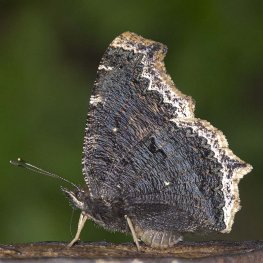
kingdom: Animalia
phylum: Arthropoda
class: Insecta
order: Lepidoptera
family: Nymphalidae
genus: Nymphalis
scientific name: Nymphalis antiopa
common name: Mourning Cloak
